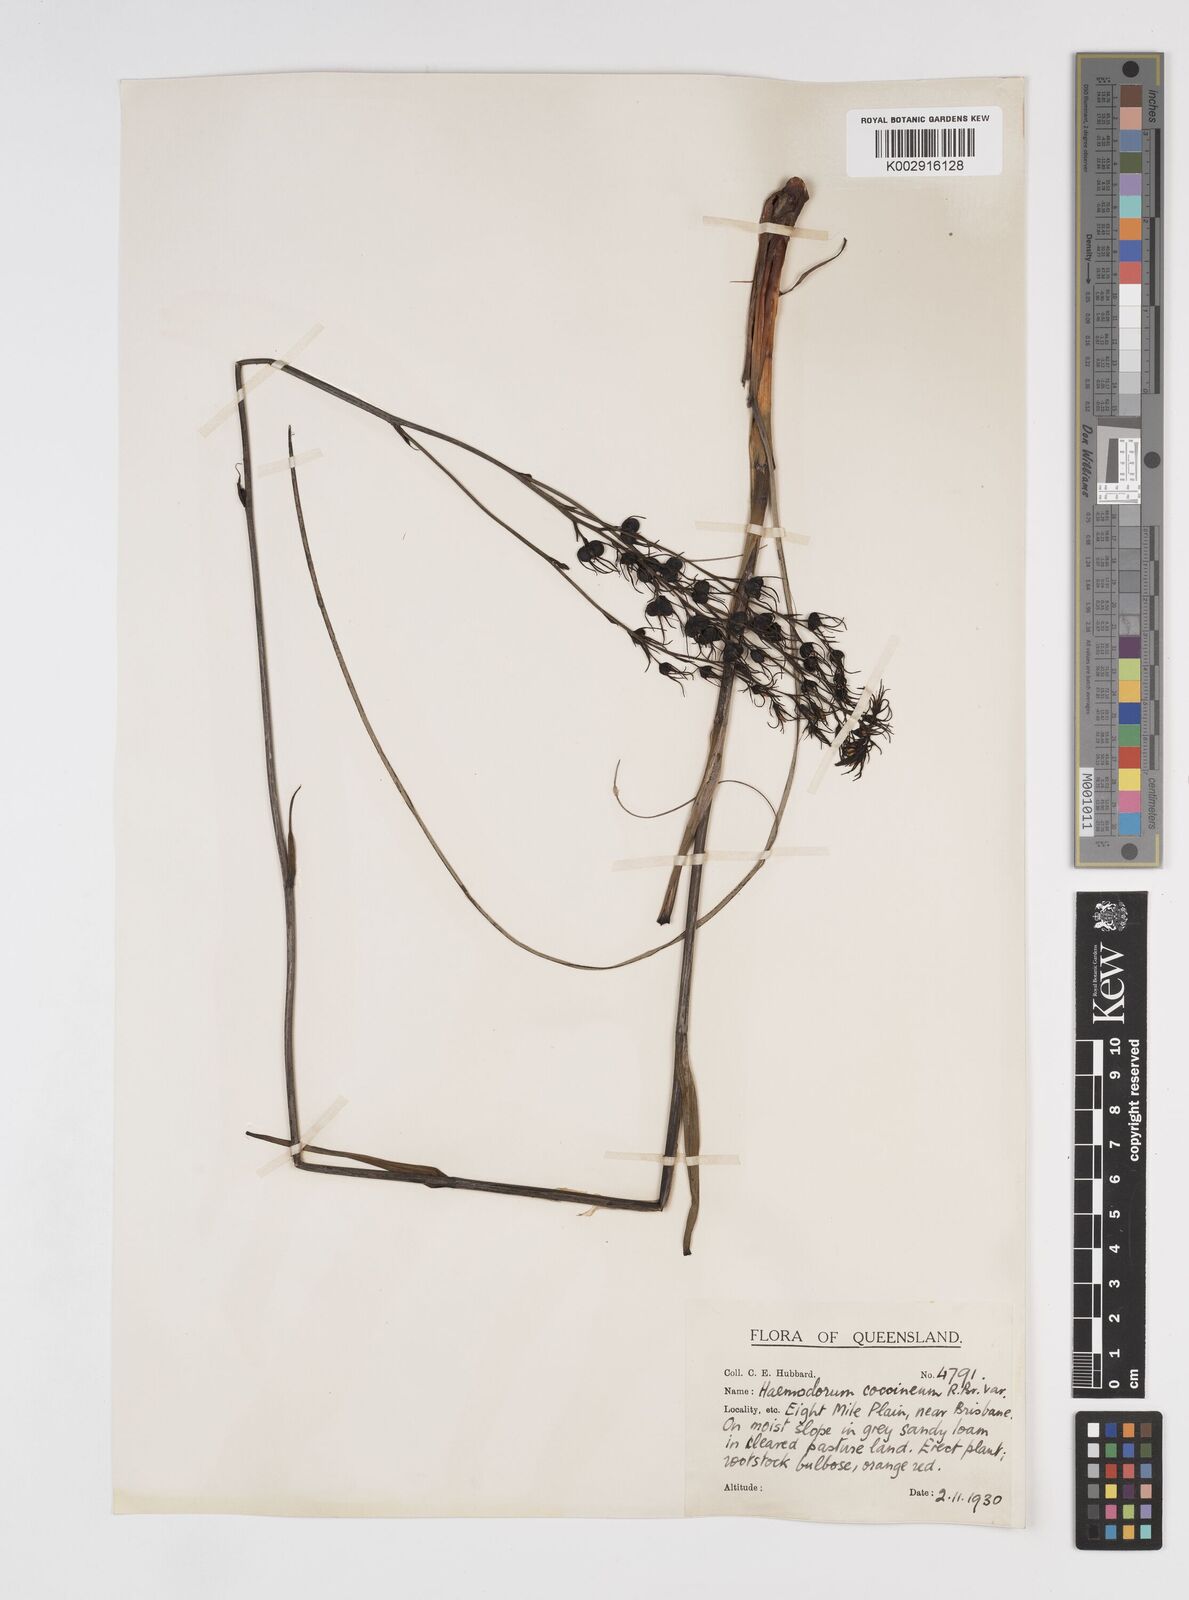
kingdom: Plantae
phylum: Tracheophyta
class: Liliopsida
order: Commelinales
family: Haemodoraceae
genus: Haemodorum
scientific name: Haemodorum coccineum
